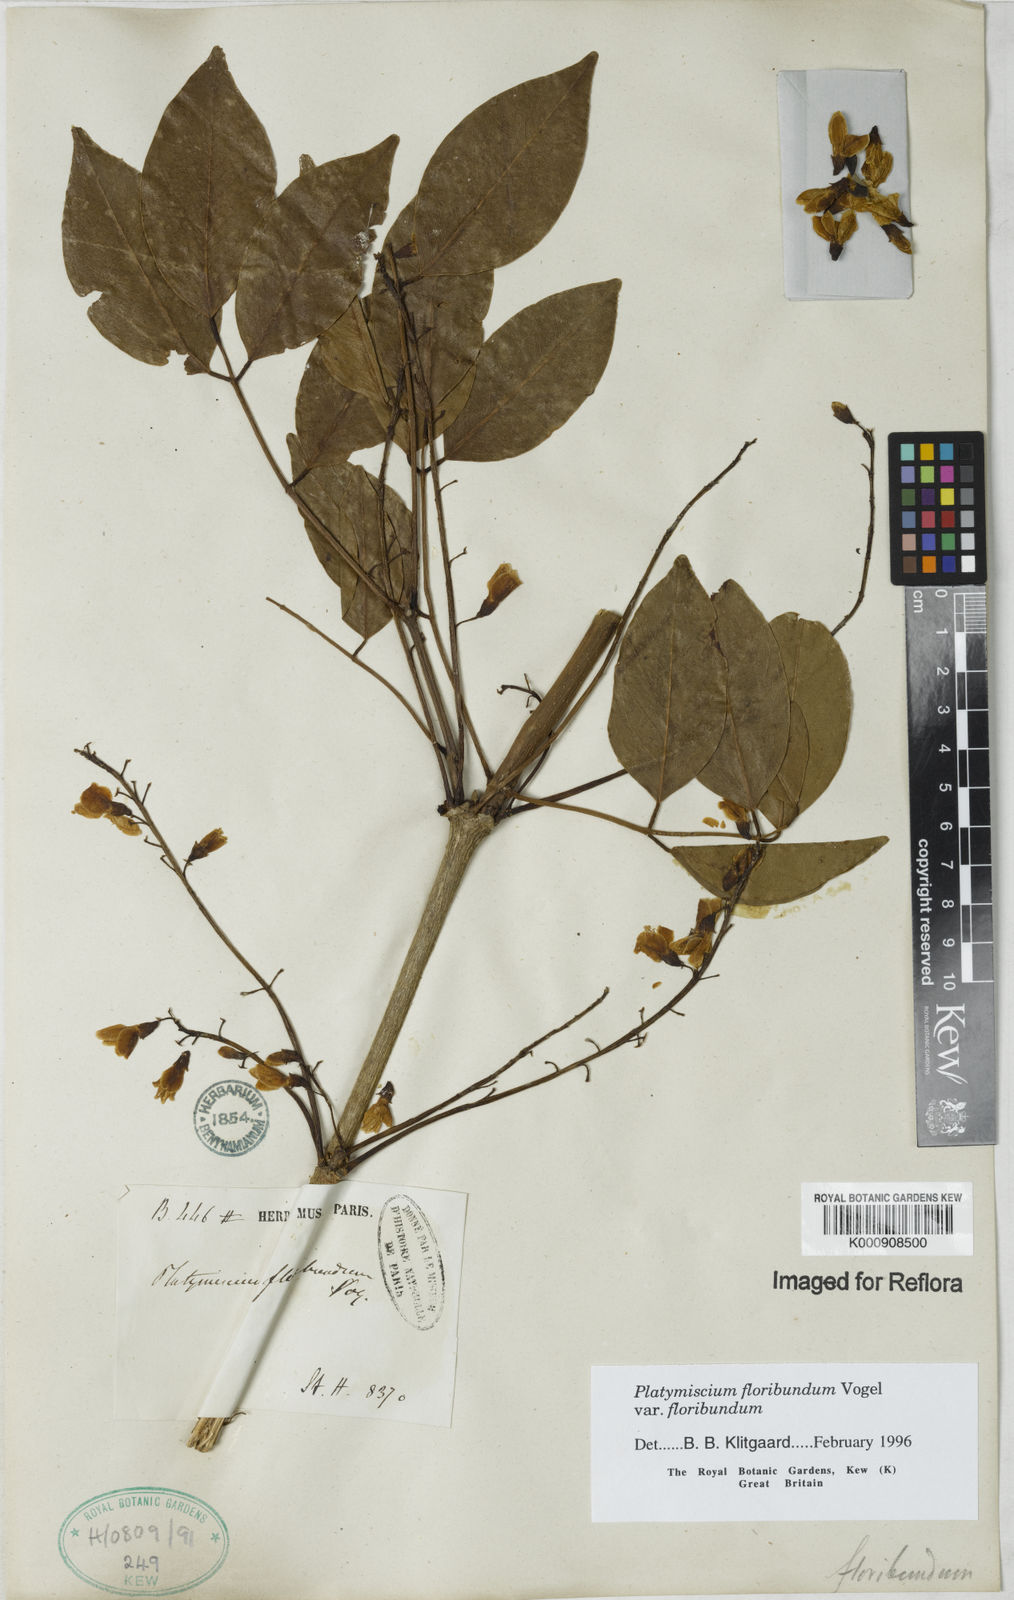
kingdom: Plantae
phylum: Tracheophyta
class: Magnoliopsida
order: Fabales
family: Fabaceae
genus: Platymiscium
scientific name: Platymiscium floribundum
